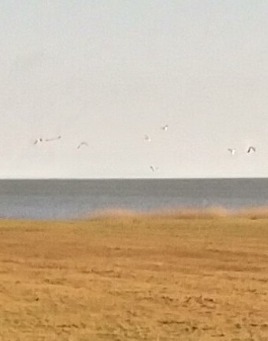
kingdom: Animalia
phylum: Chordata
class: Aves
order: Charadriiformes
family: Charadriidae
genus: Vanellus
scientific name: Vanellus vanellus
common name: Vibe
